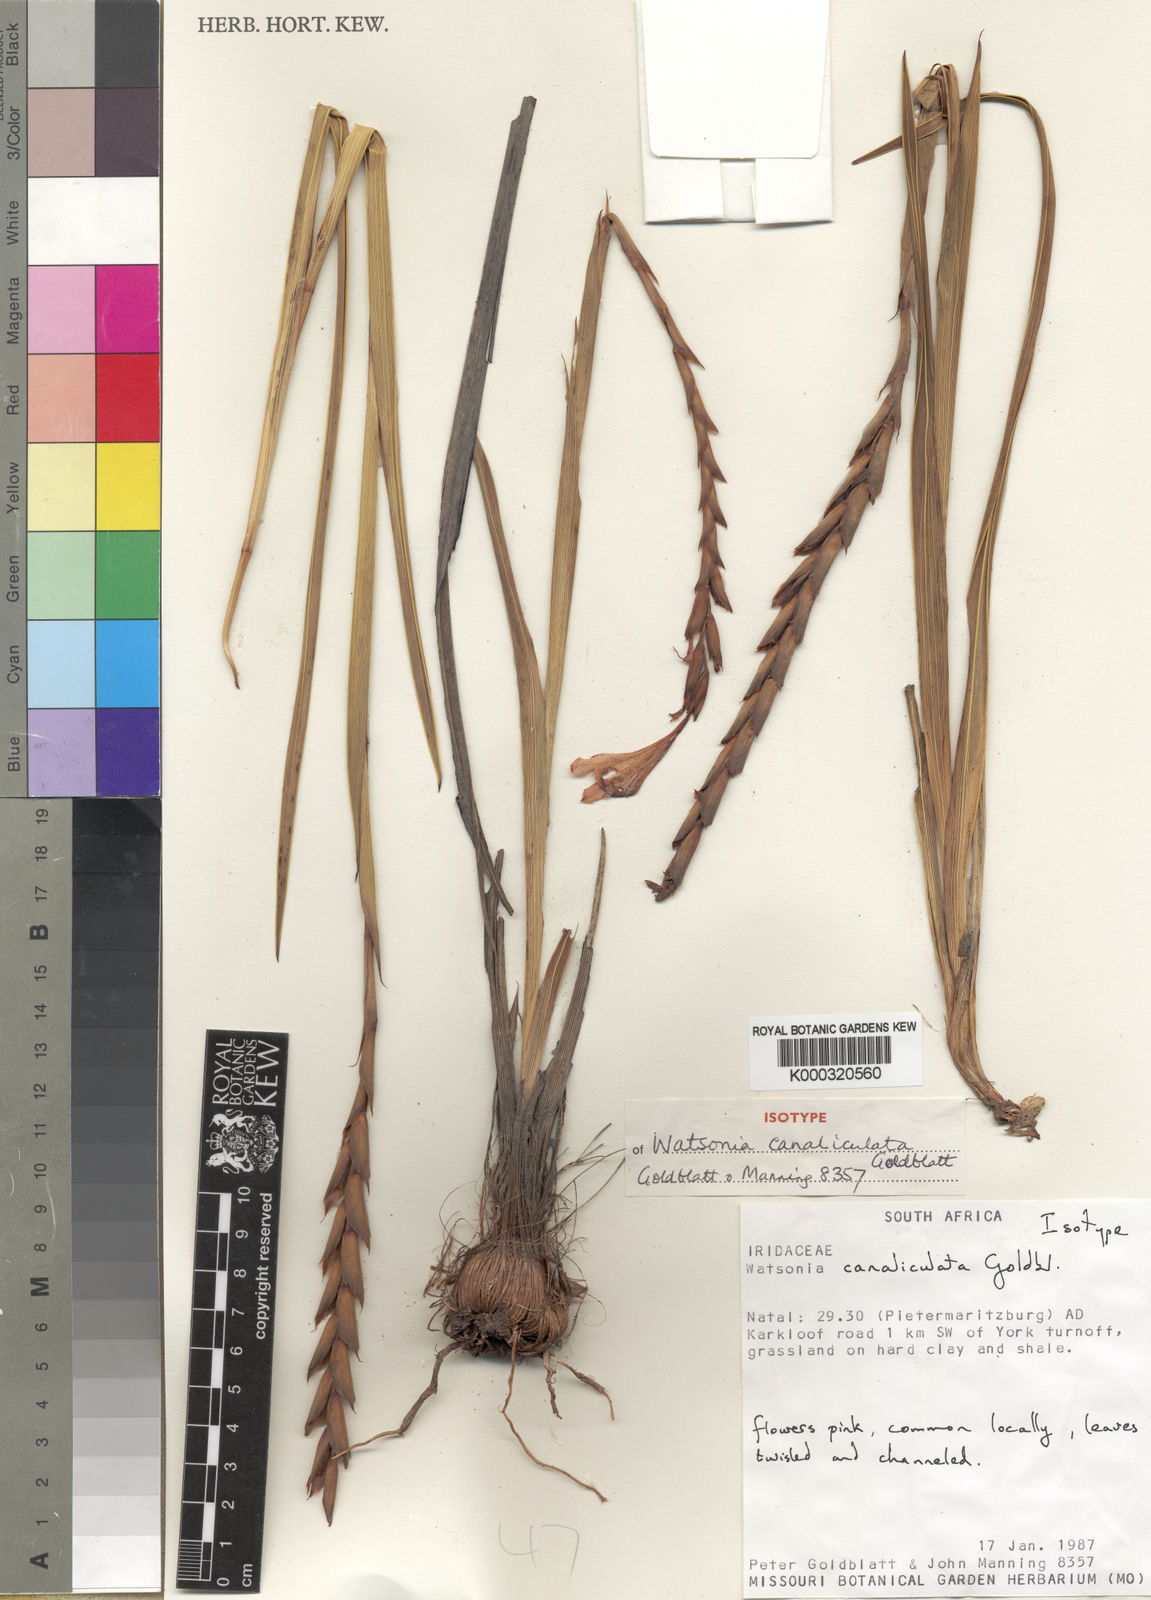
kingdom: Plantae
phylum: Tracheophyta
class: Liliopsida
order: Asparagales
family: Iridaceae
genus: Watsonia
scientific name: Watsonia canaliculata
